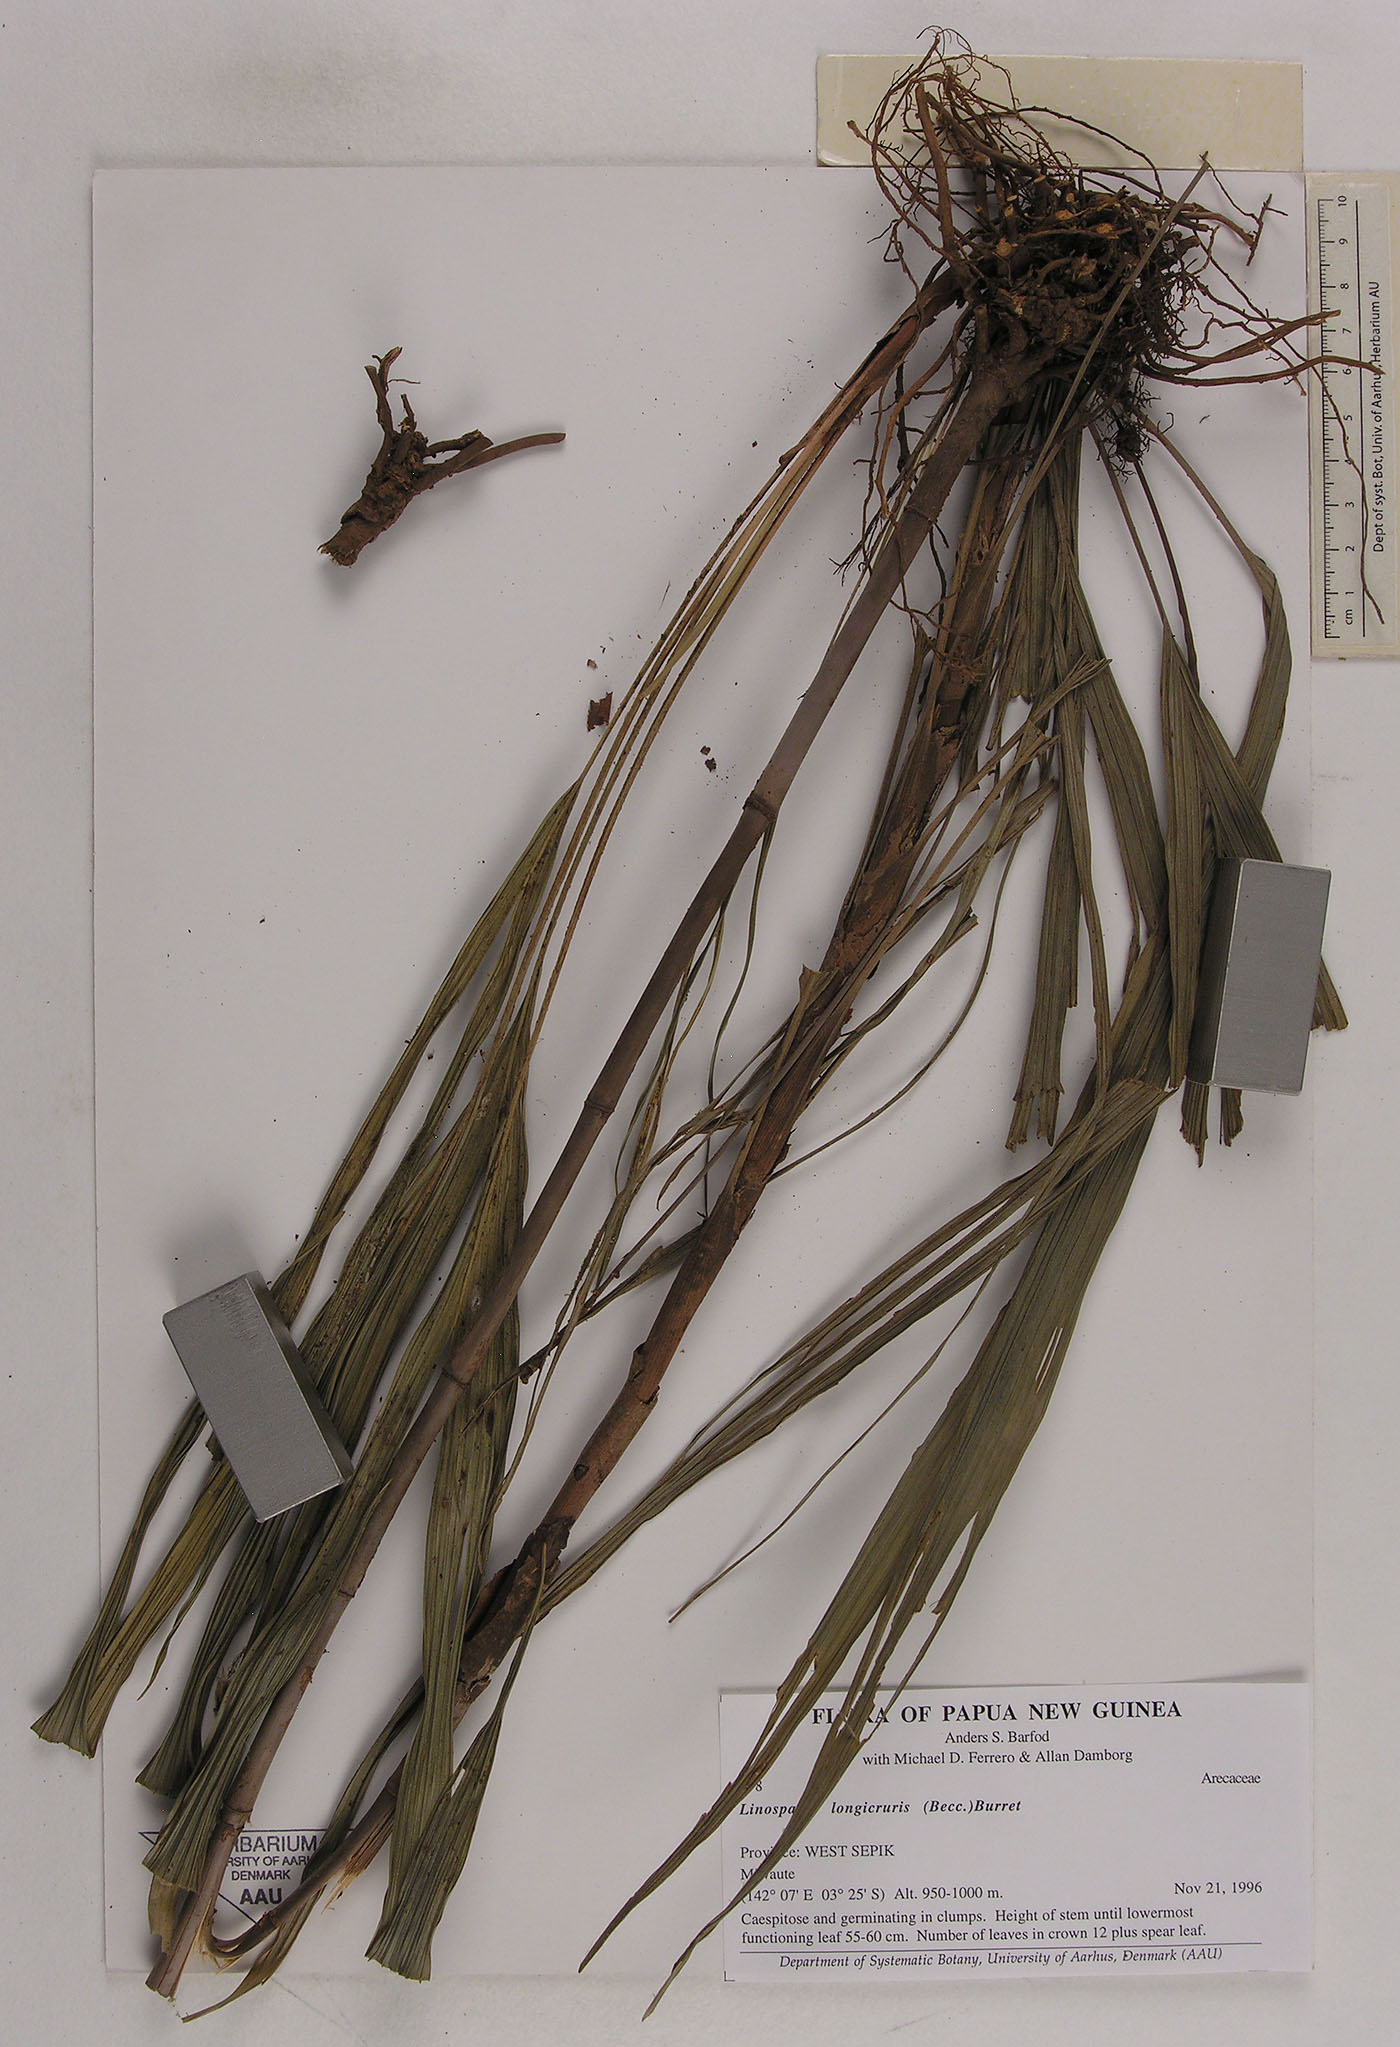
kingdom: Plantae
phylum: Tracheophyta
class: Liliopsida
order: Arecales
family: Arecaceae
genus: Linospadix
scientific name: Linospadix albertisianus
